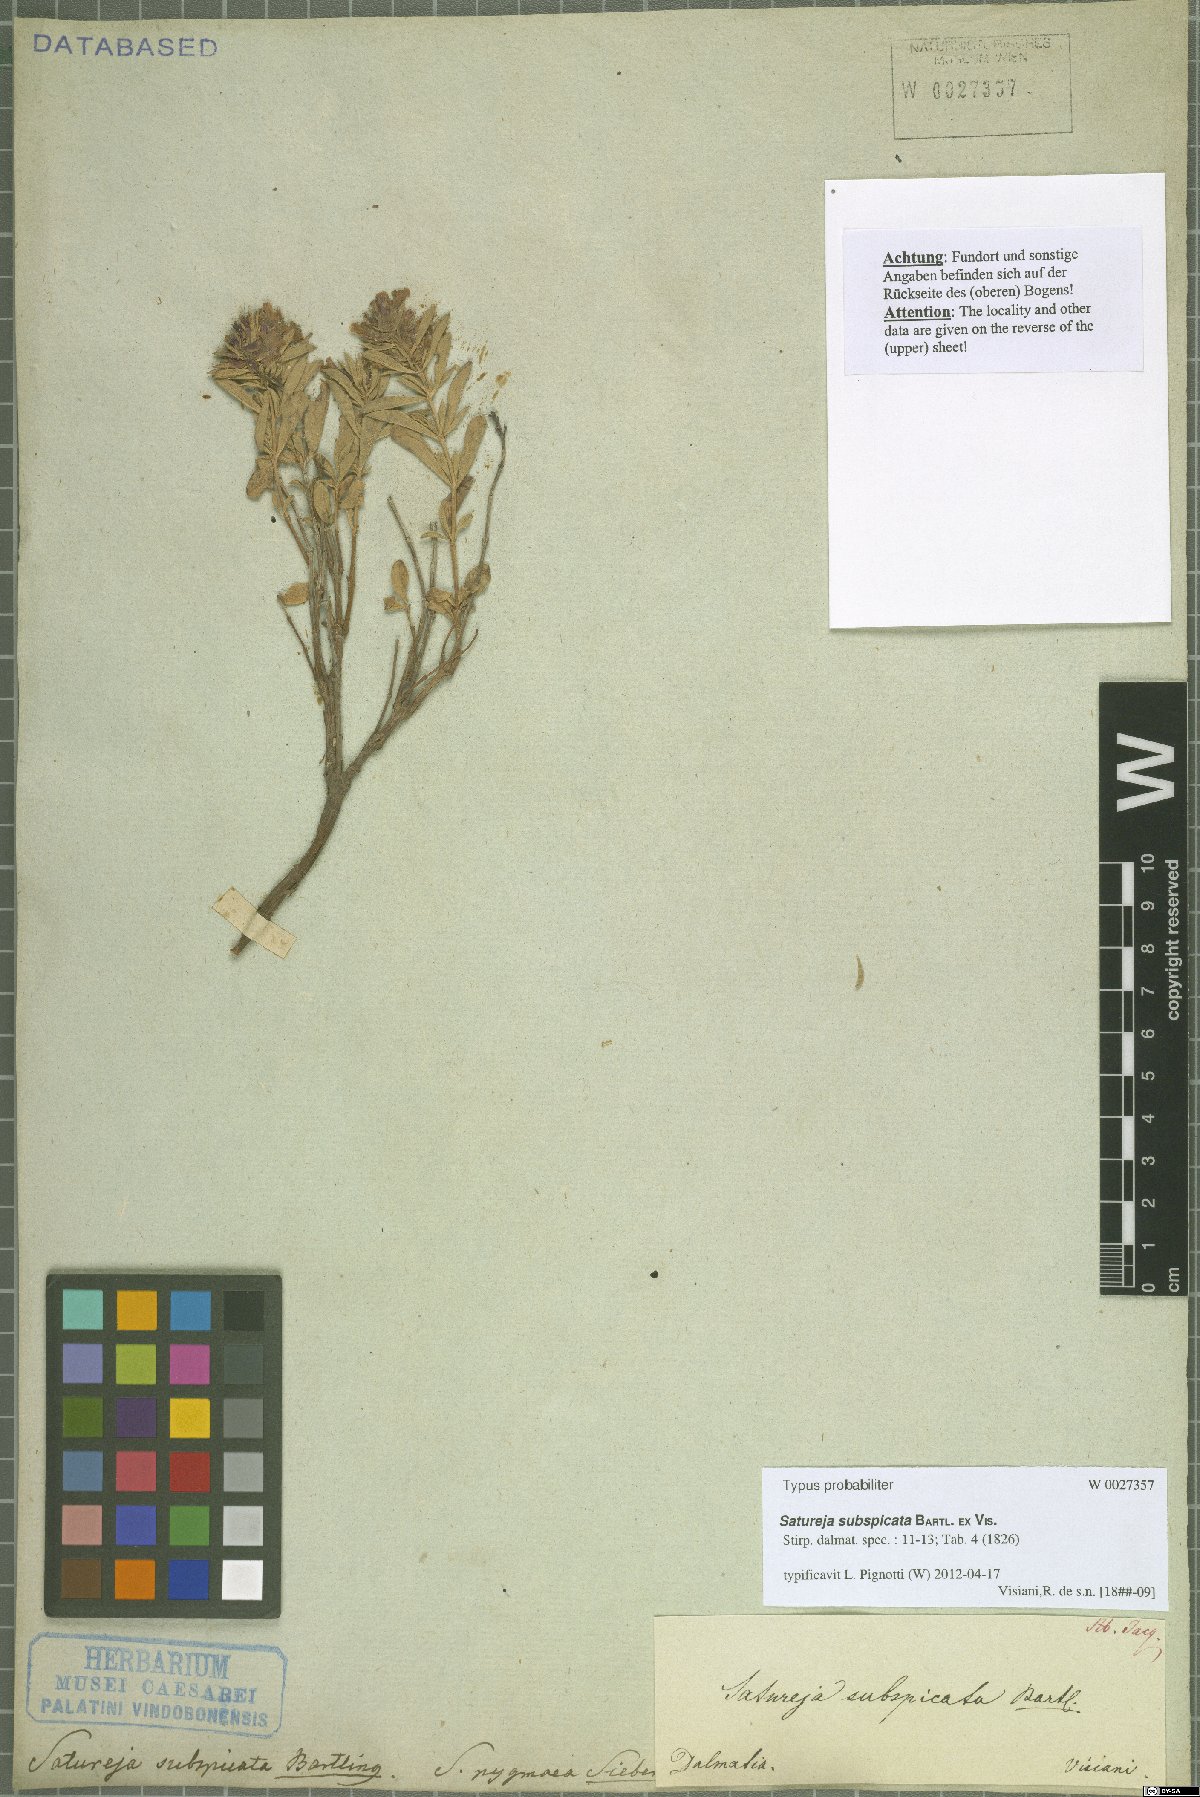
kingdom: Plantae
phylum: Tracheophyta
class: Magnoliopsida
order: Lamiales
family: Lamiaceae
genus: Satureja
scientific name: Satureja subspicata
